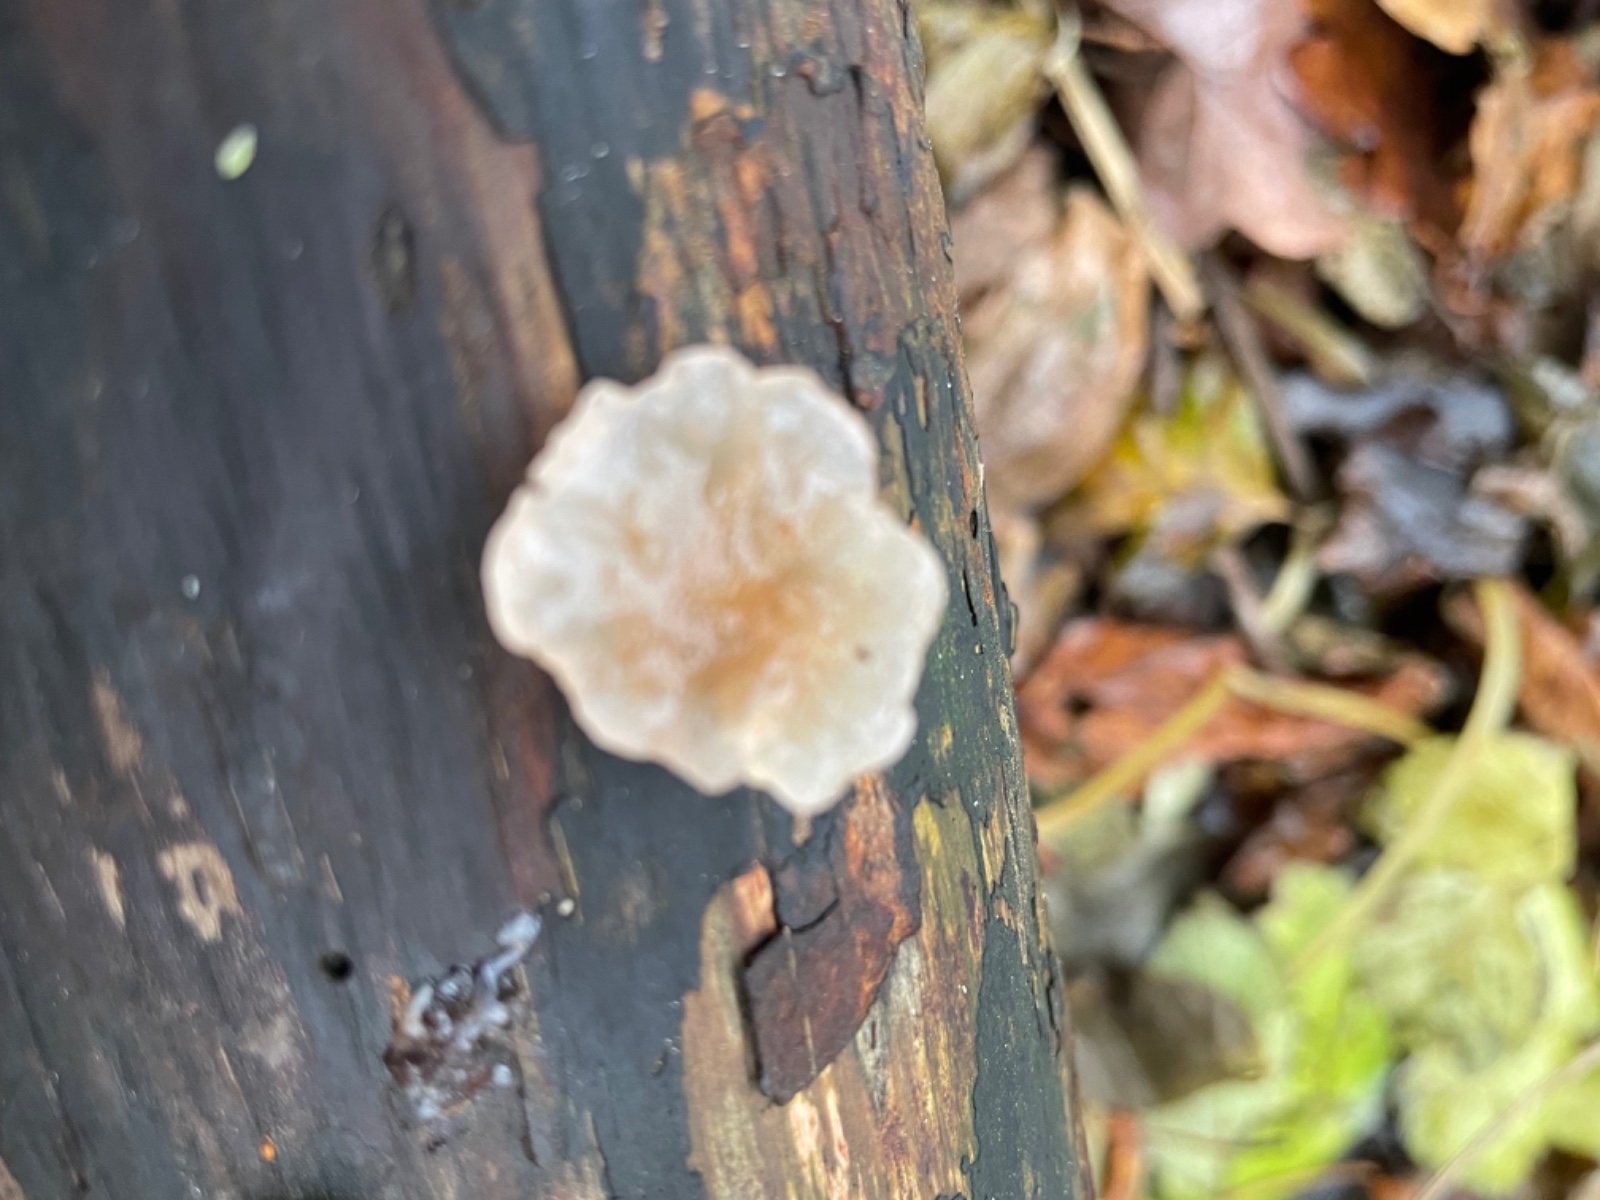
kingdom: Fungi
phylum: Basidiomycota
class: Agaricomycetes
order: Auriculariales
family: Hyaloriaceae
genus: Myxarium
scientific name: Myxarium nucleatum
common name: klar bævretop
